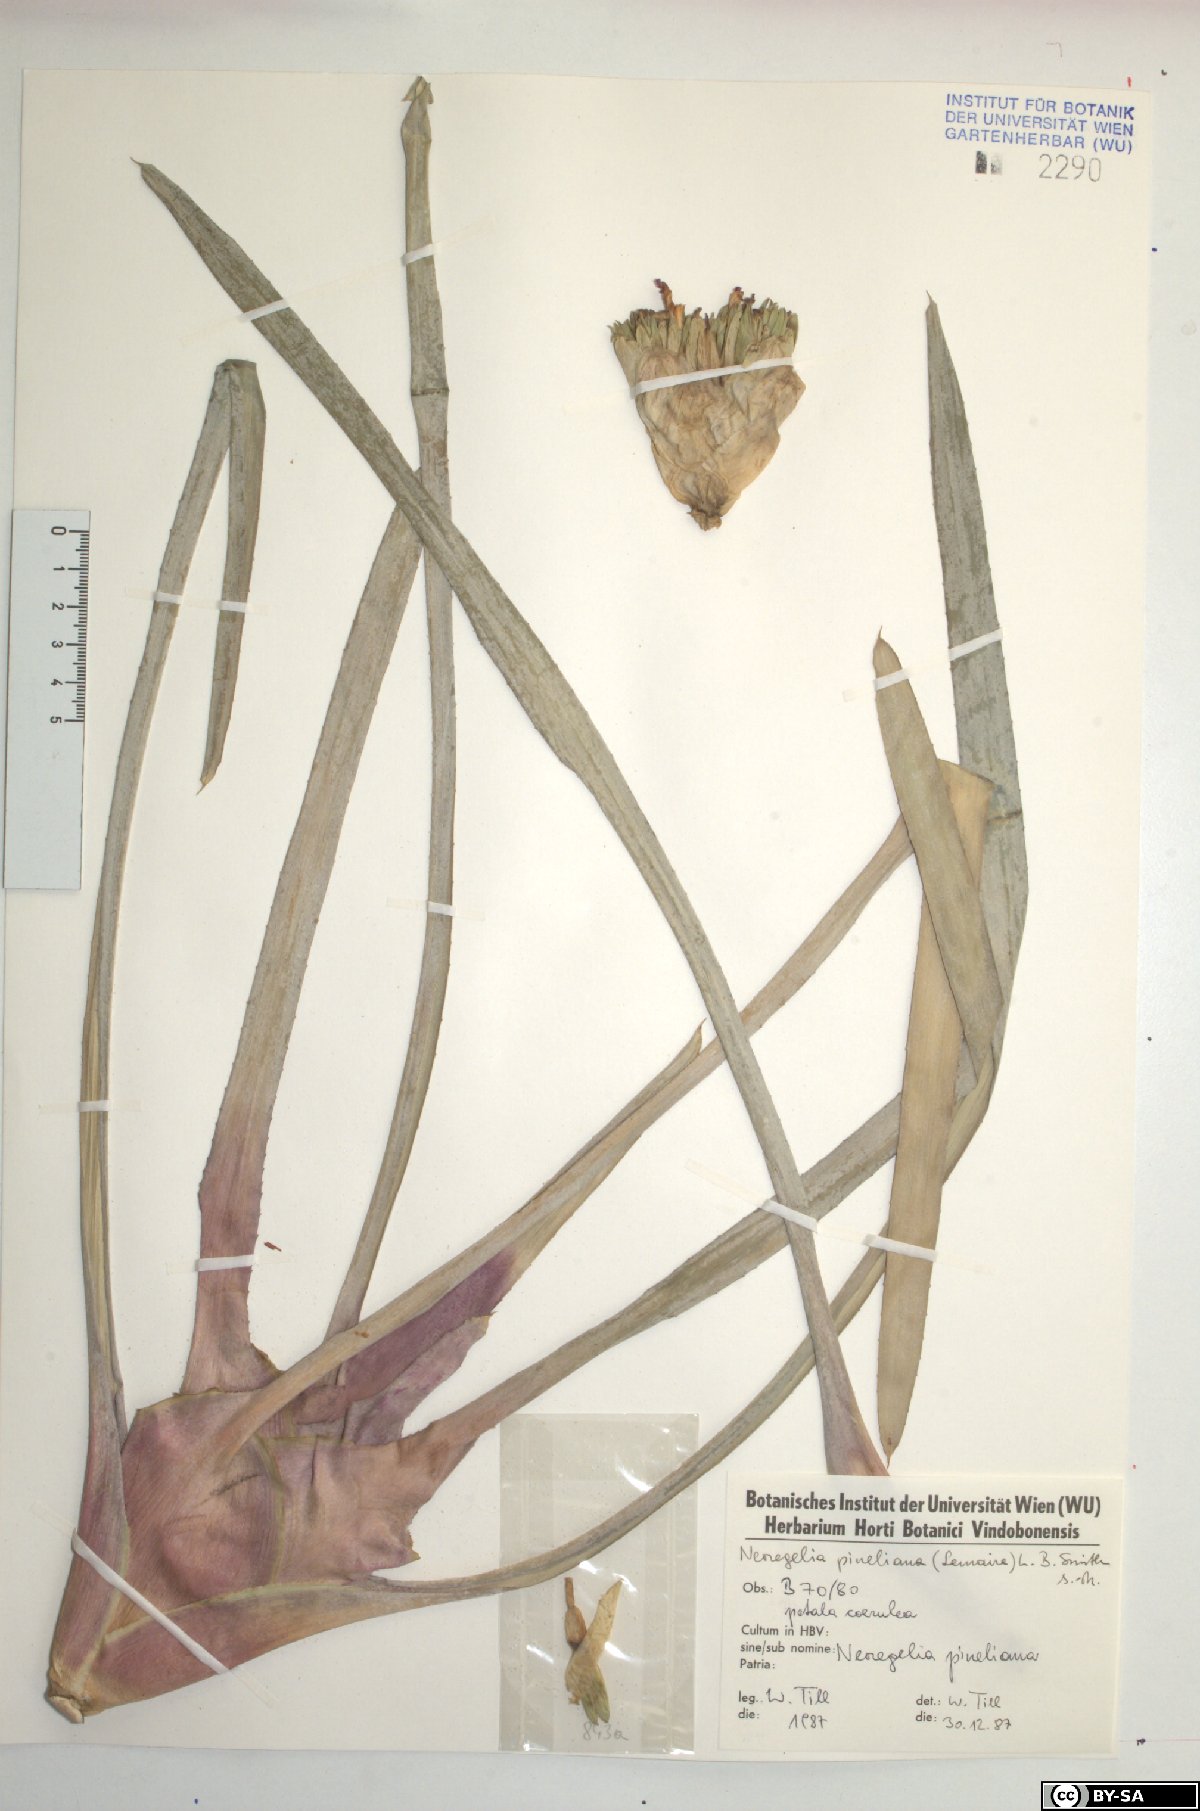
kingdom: Plantae
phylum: Tracheophyta
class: Liliopsida
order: Poales
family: Bromeliaceae
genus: Neoregelia
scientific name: Neoregelia pineliana
